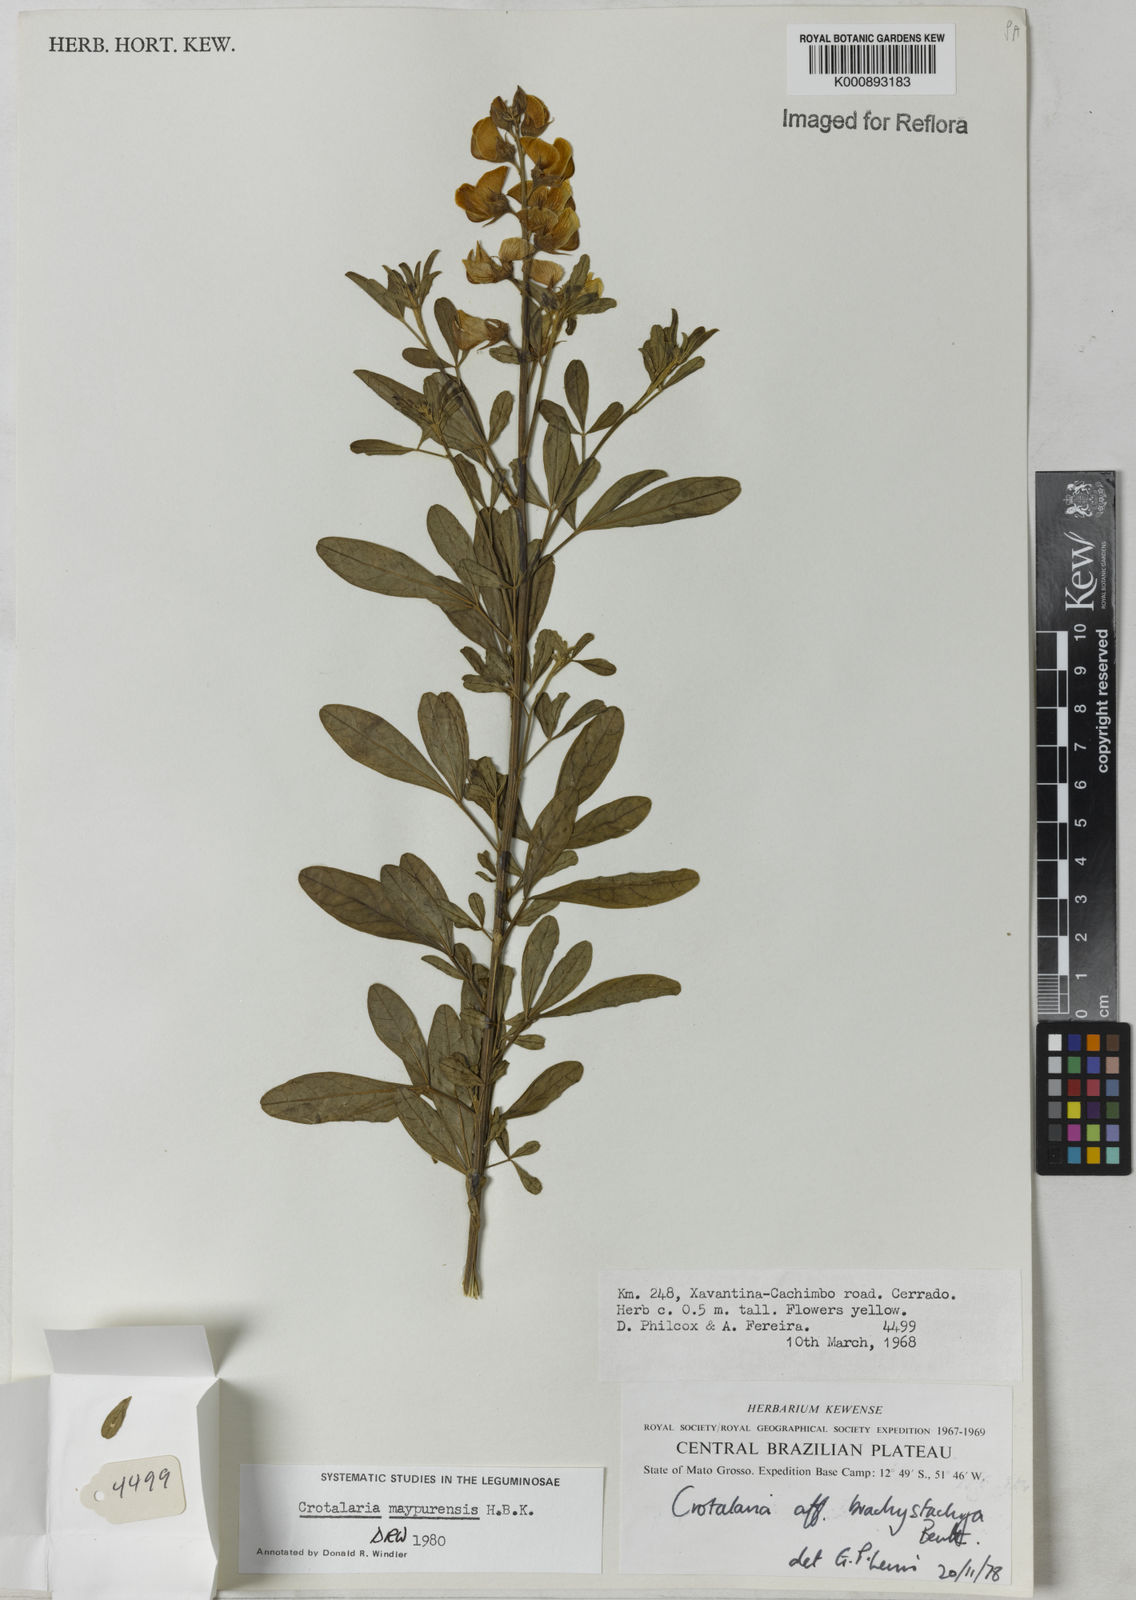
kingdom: Plantae
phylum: Tracheophyta
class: Magnoliopsida
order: Fabales
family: Fabaceae
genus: Crotalaria
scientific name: Crotalaria maypurensis
